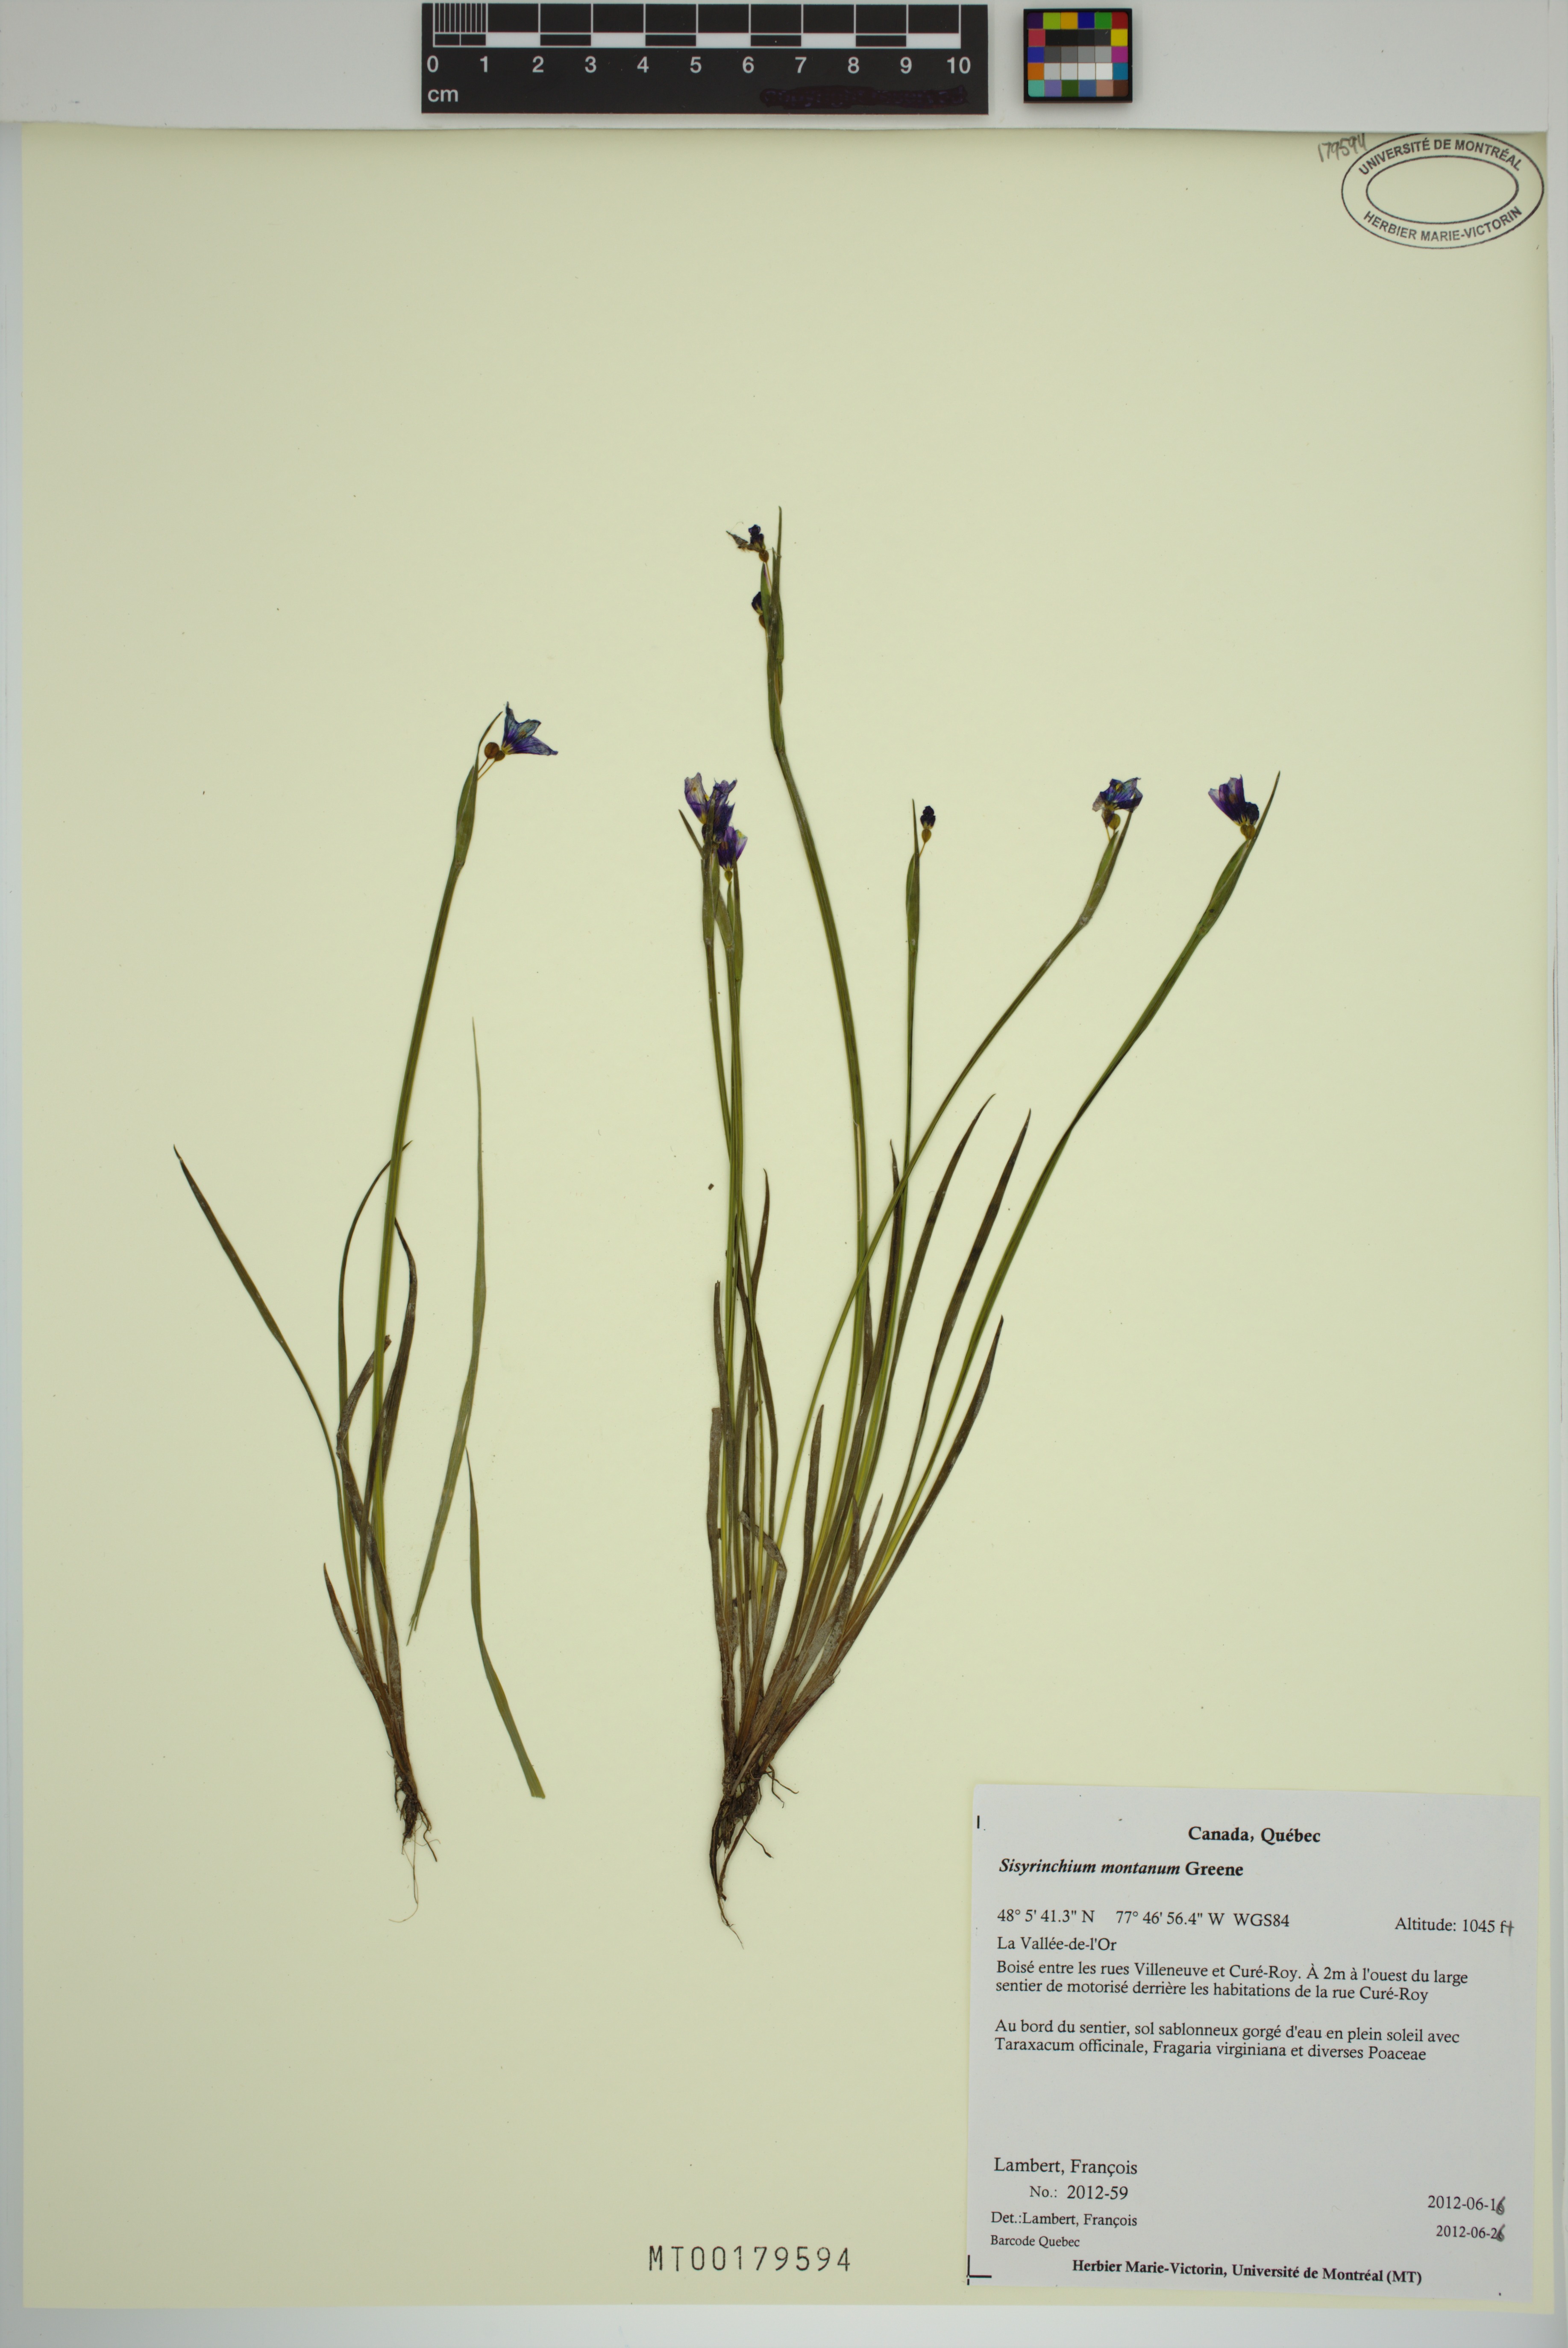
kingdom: Plantae
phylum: Tracheophyta
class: Liliopsida
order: Asparagales
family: Iridaceae
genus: Sisyrinchium
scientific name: Sisyrinchium montanum
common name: American blue-eyed-grass
